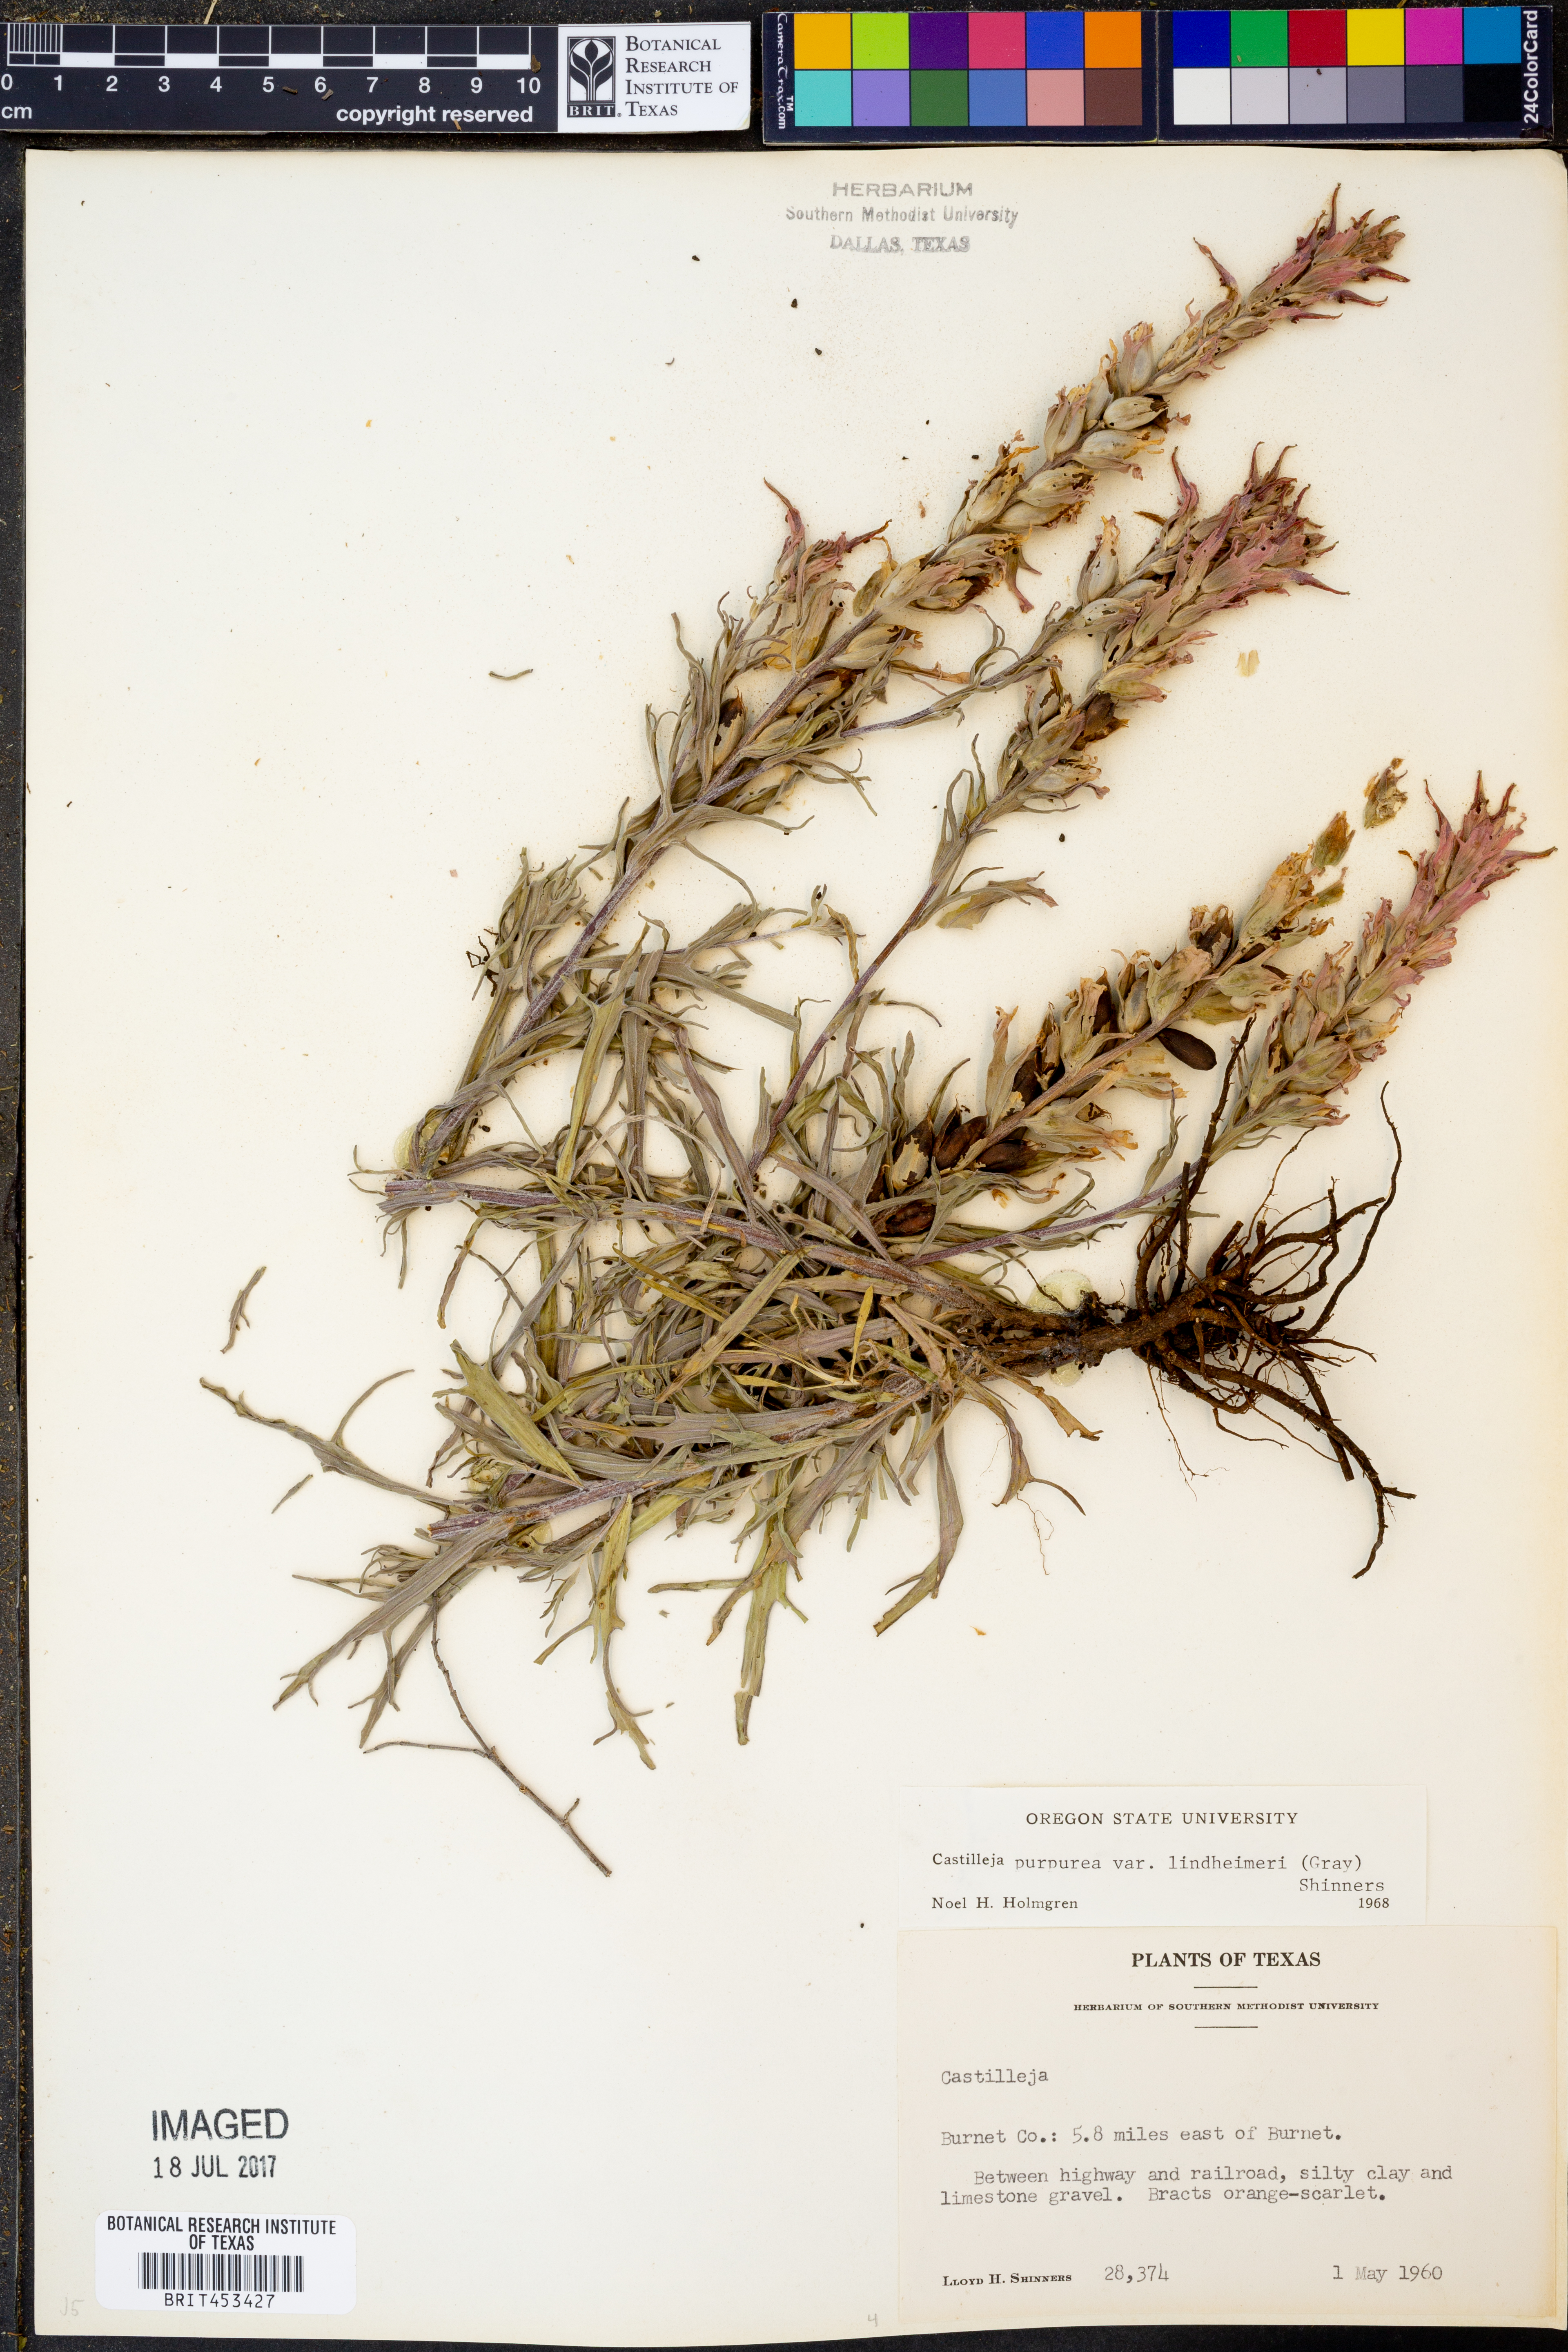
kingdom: Plantae
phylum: Tracheophyta
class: Magnoliopsida
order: Lamiales
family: Orobanchaceae
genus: Castilleja
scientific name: Castilleja lindheimeri
